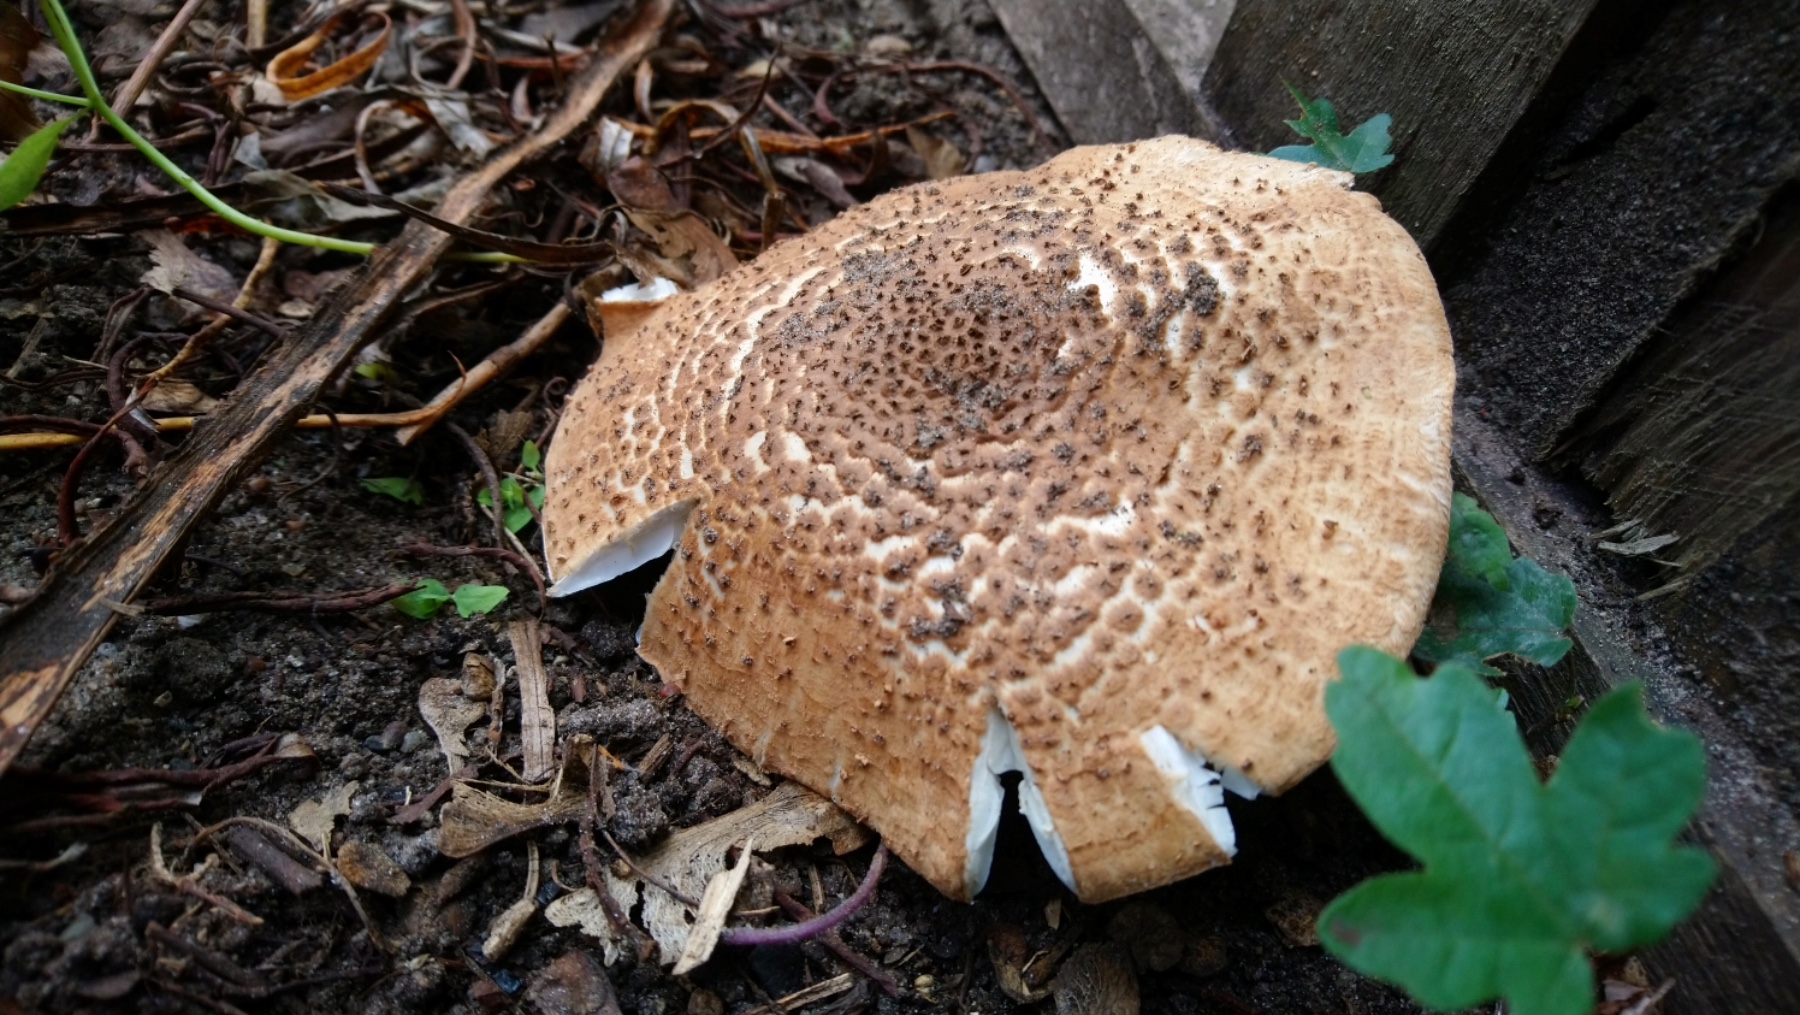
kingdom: Fungi
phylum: Basidiomycota
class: Agaricomycetes
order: Agaricales
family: Agaricaceae
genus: Echinoderma
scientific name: Echinoderma asperum
